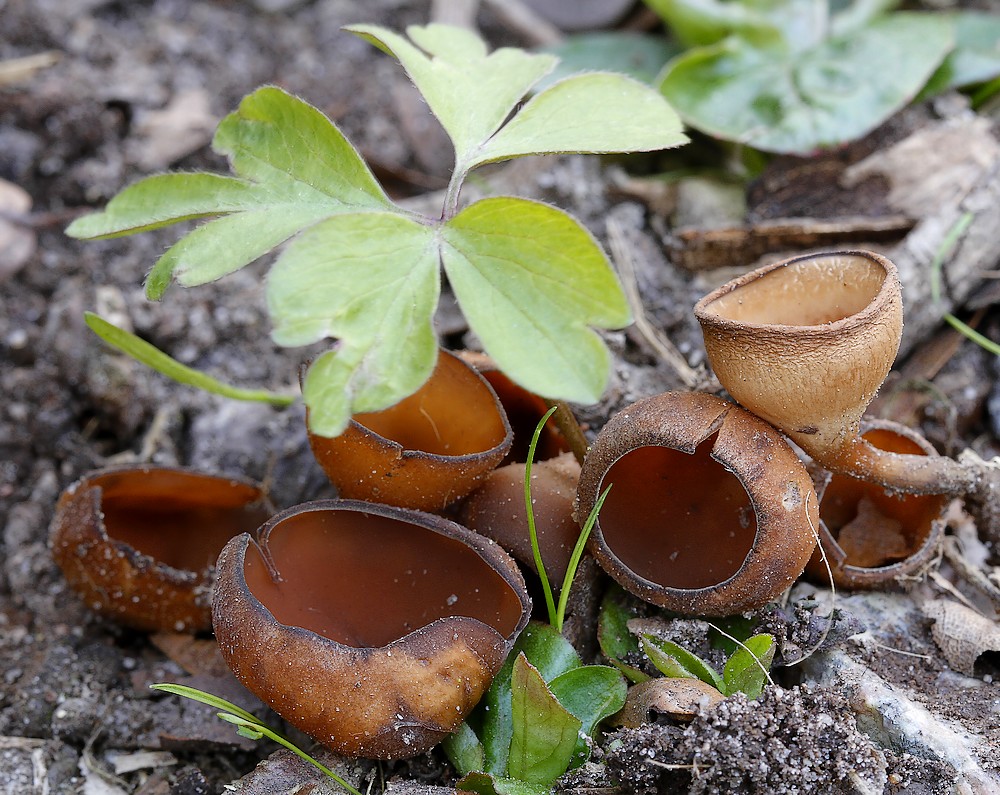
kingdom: Fungi
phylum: Ascomycota
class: Leotiomycetes
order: Helotiales
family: Sclerotiniaceae
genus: Dumontinia
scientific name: Dumontinia tuberosa
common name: anemone-knoldskive
